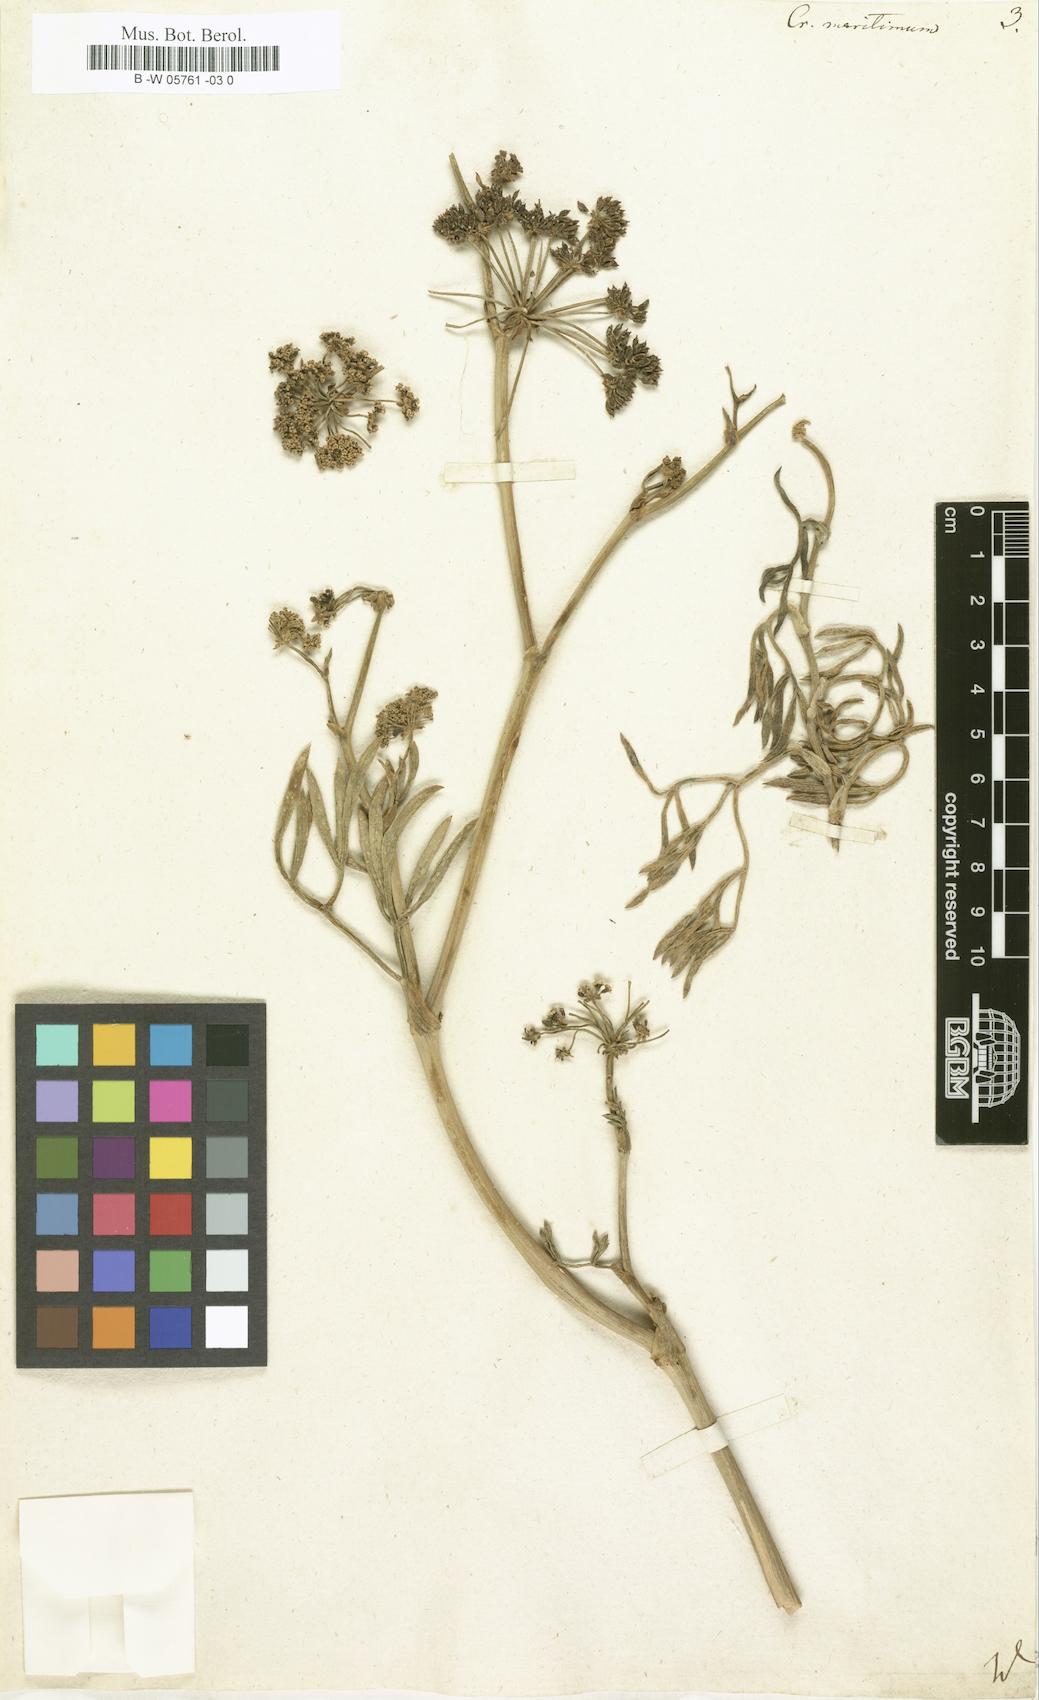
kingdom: Plantae
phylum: Tracheophyta
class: Magnoliopsida
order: Apiales
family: Apiaceae
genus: Crithmum
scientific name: Crithmum maritimum
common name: Rock samphire
